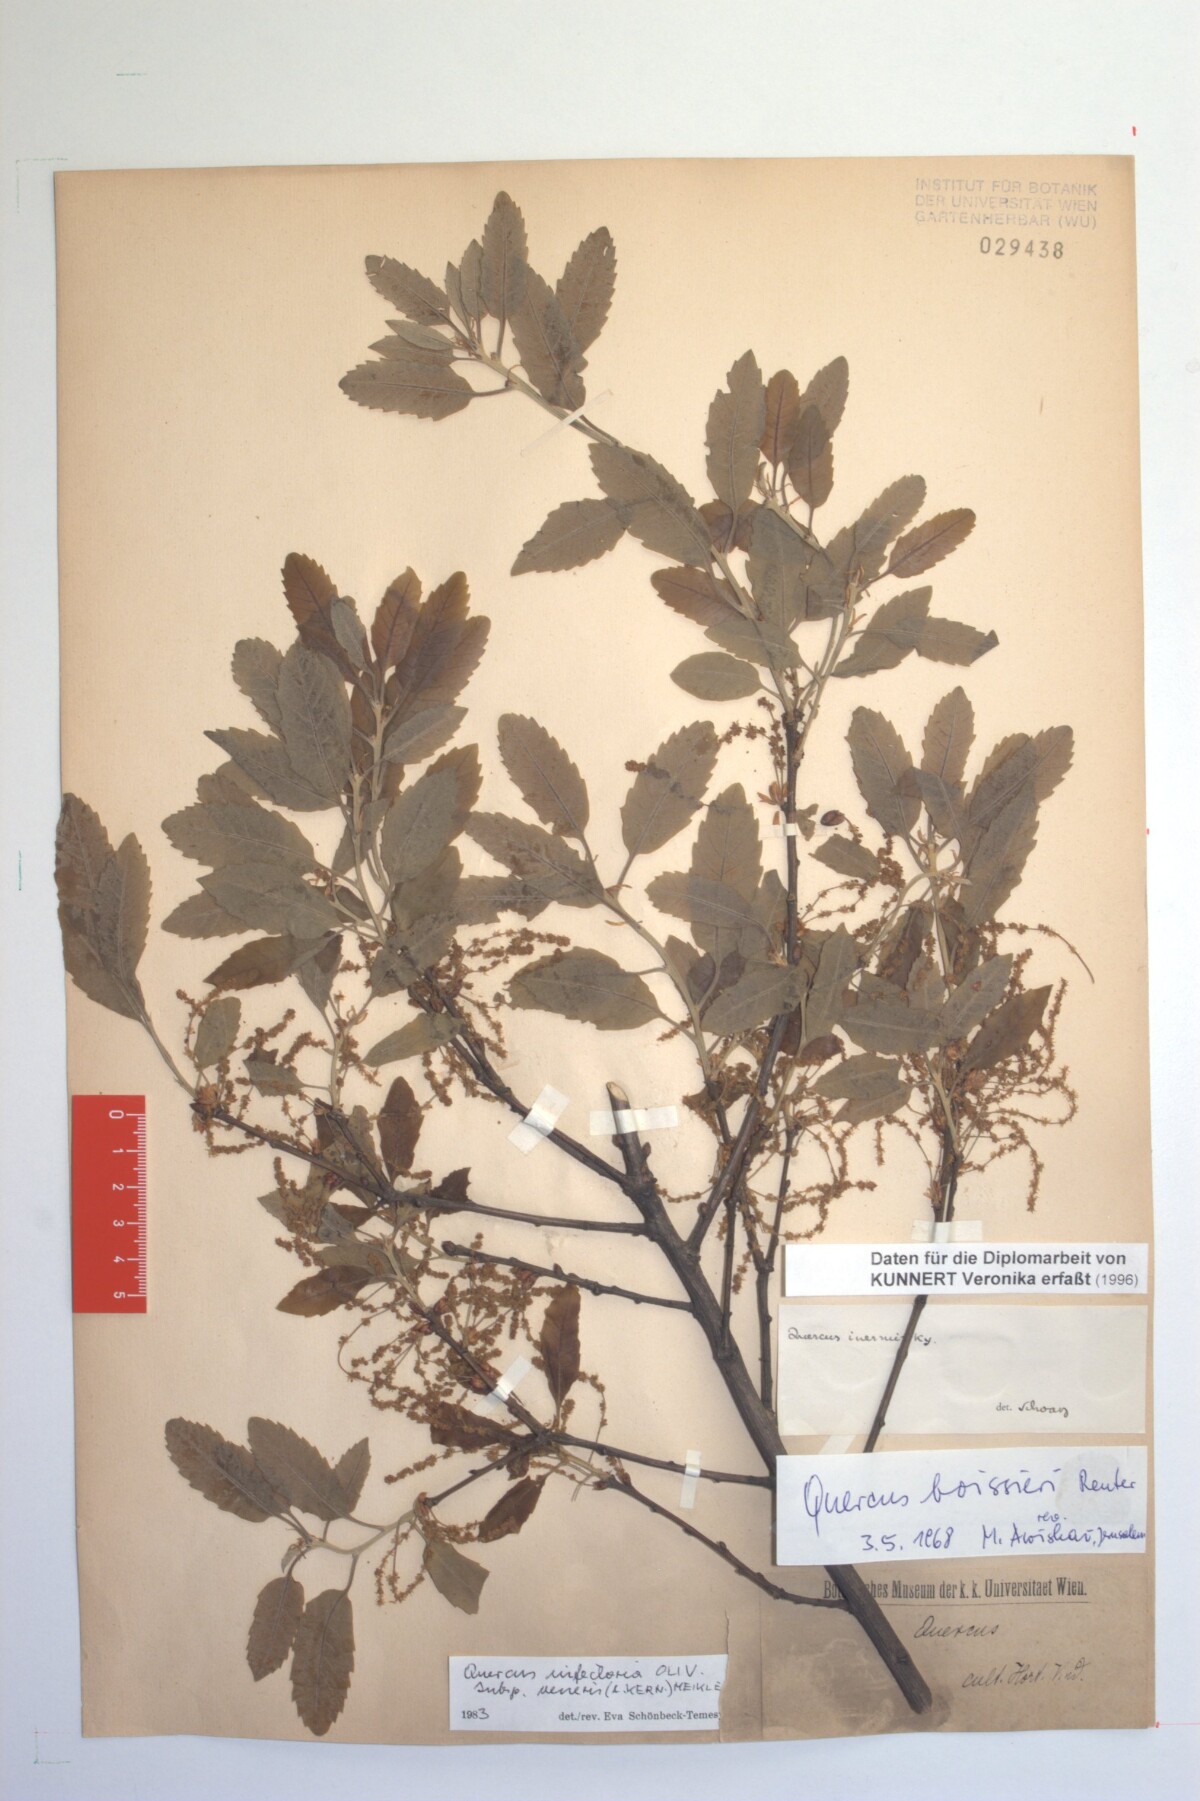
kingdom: Plantae
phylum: Tracheophyta
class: Magnoliopsida
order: Fagales
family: Fagaceae
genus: Quercus
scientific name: Quercus infectoria
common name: Aleppo oak
